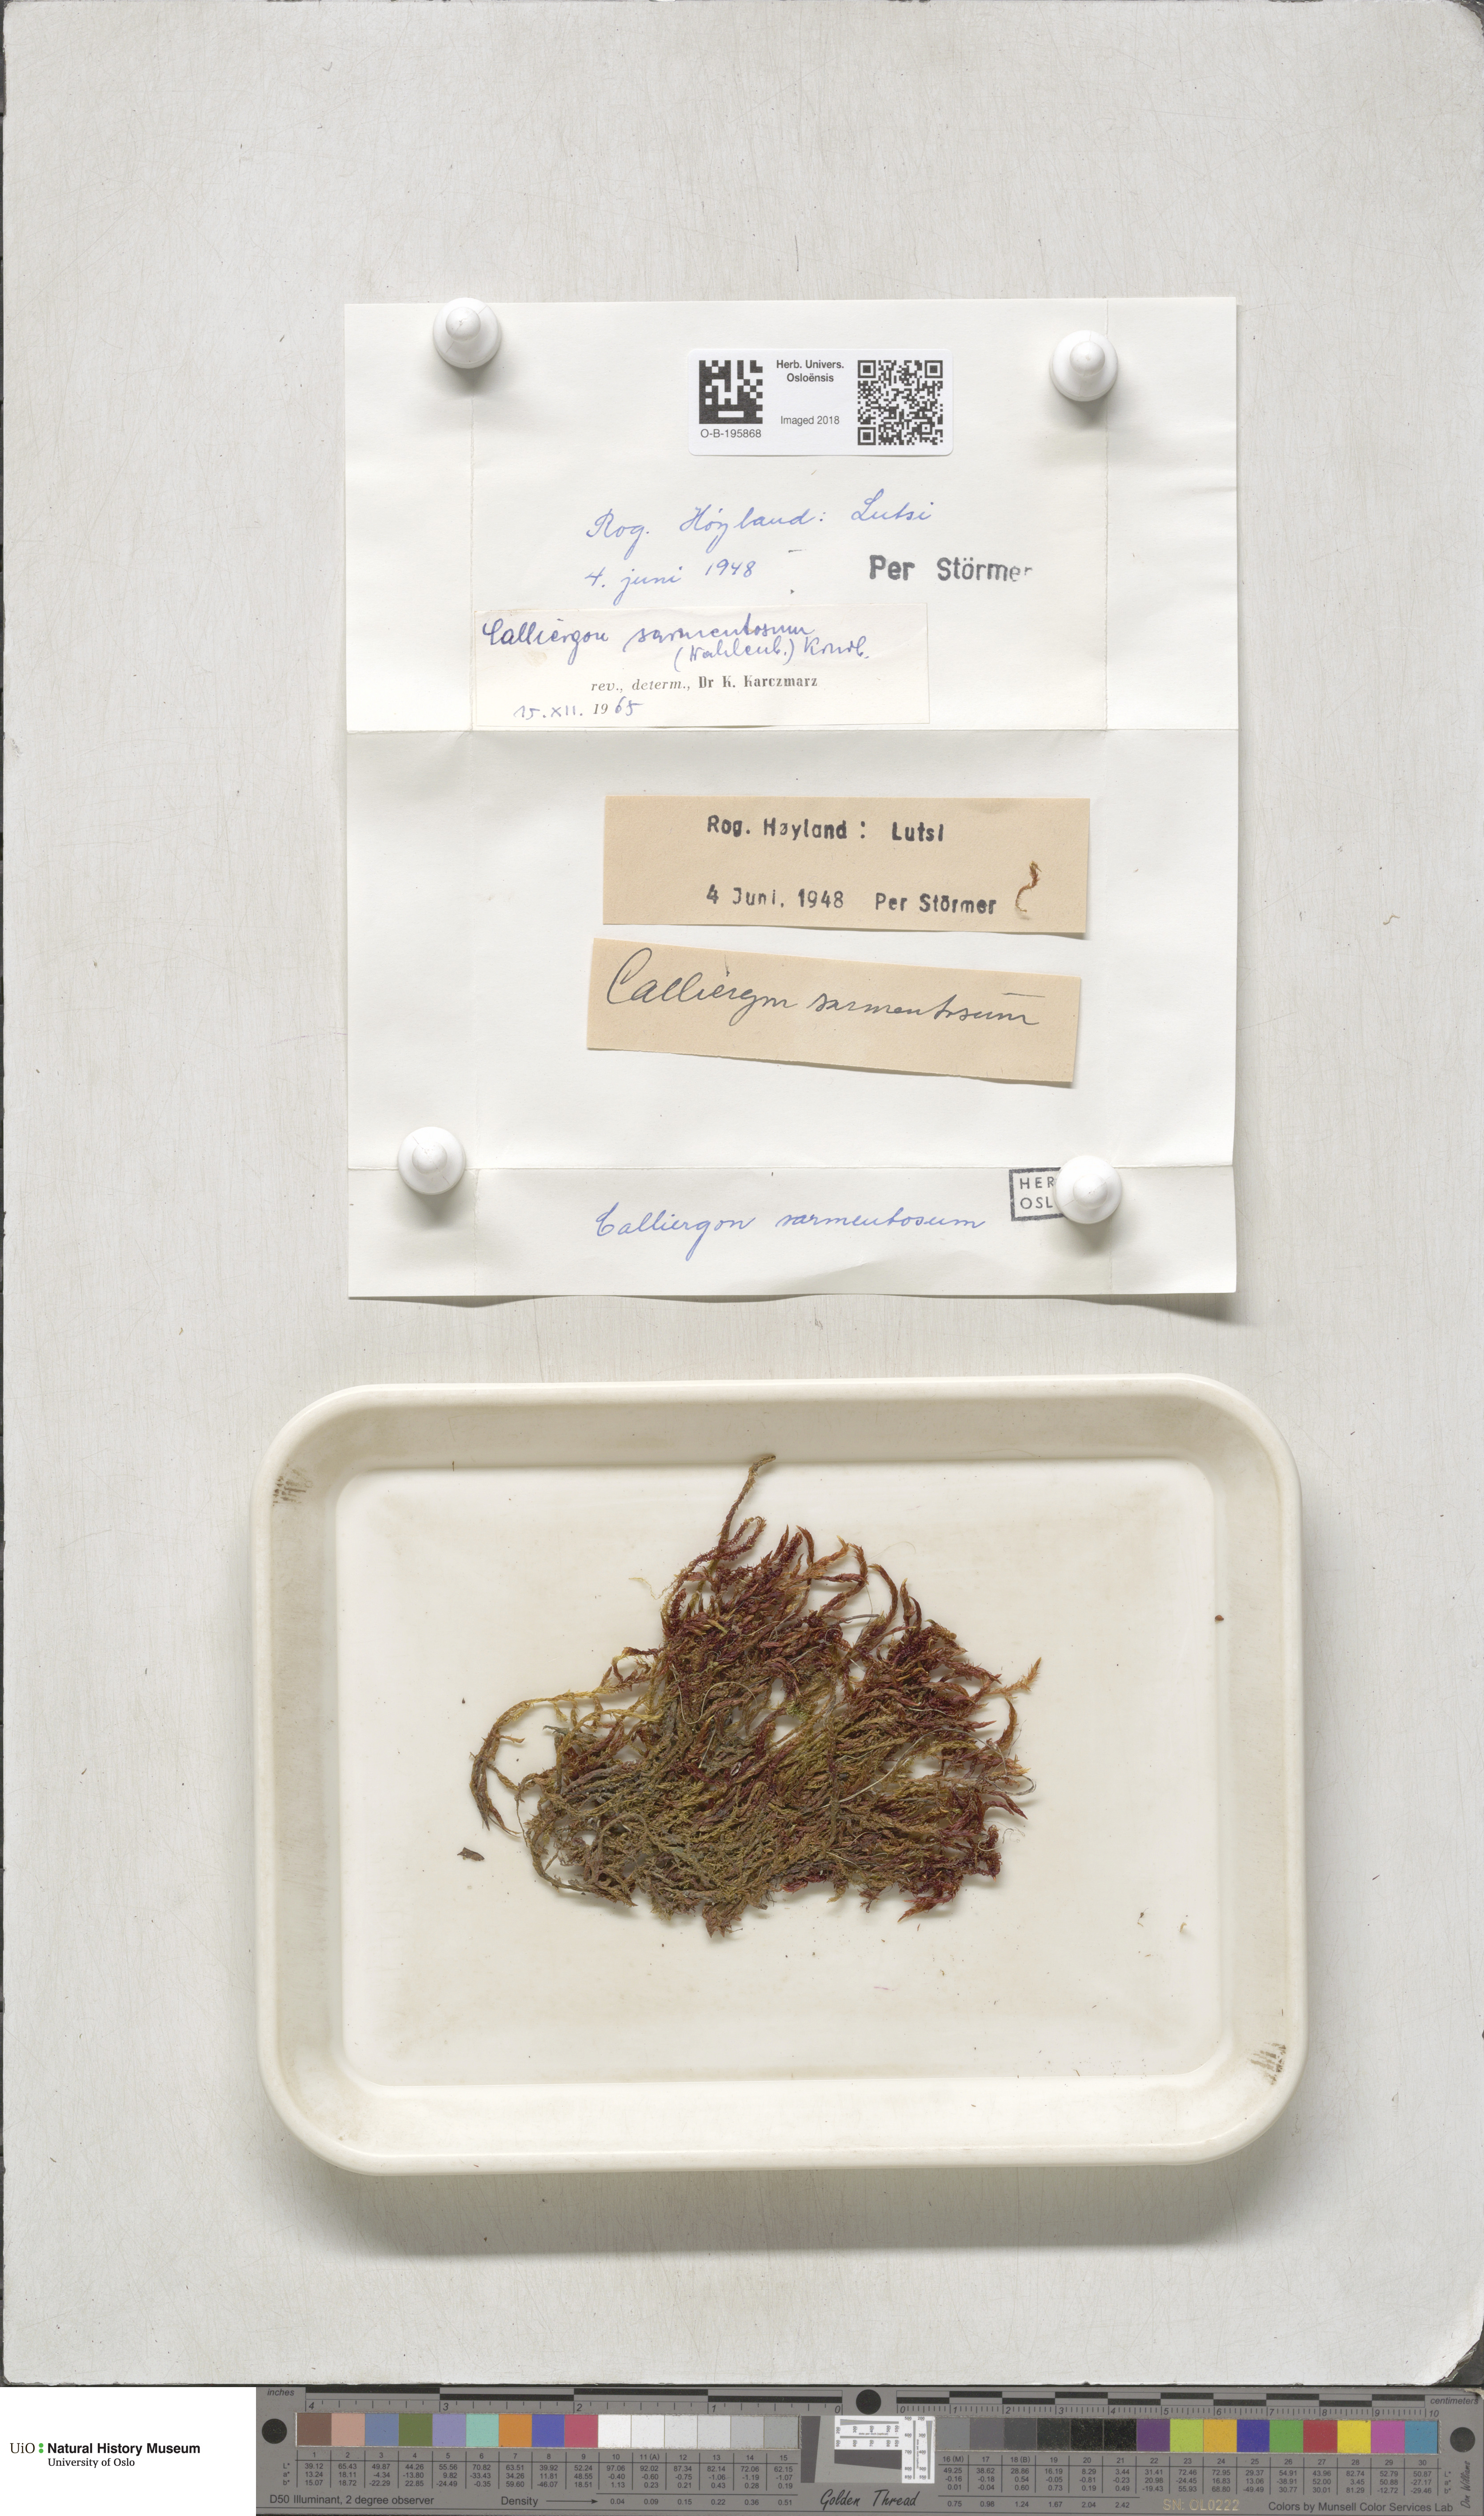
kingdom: Plantae
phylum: Bryophyta
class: Bryopsida
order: Hypnales
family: Calliergonaceae
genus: Warnstorfia
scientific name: Warnstorfia pseudostraminea
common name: Spring hook moss
